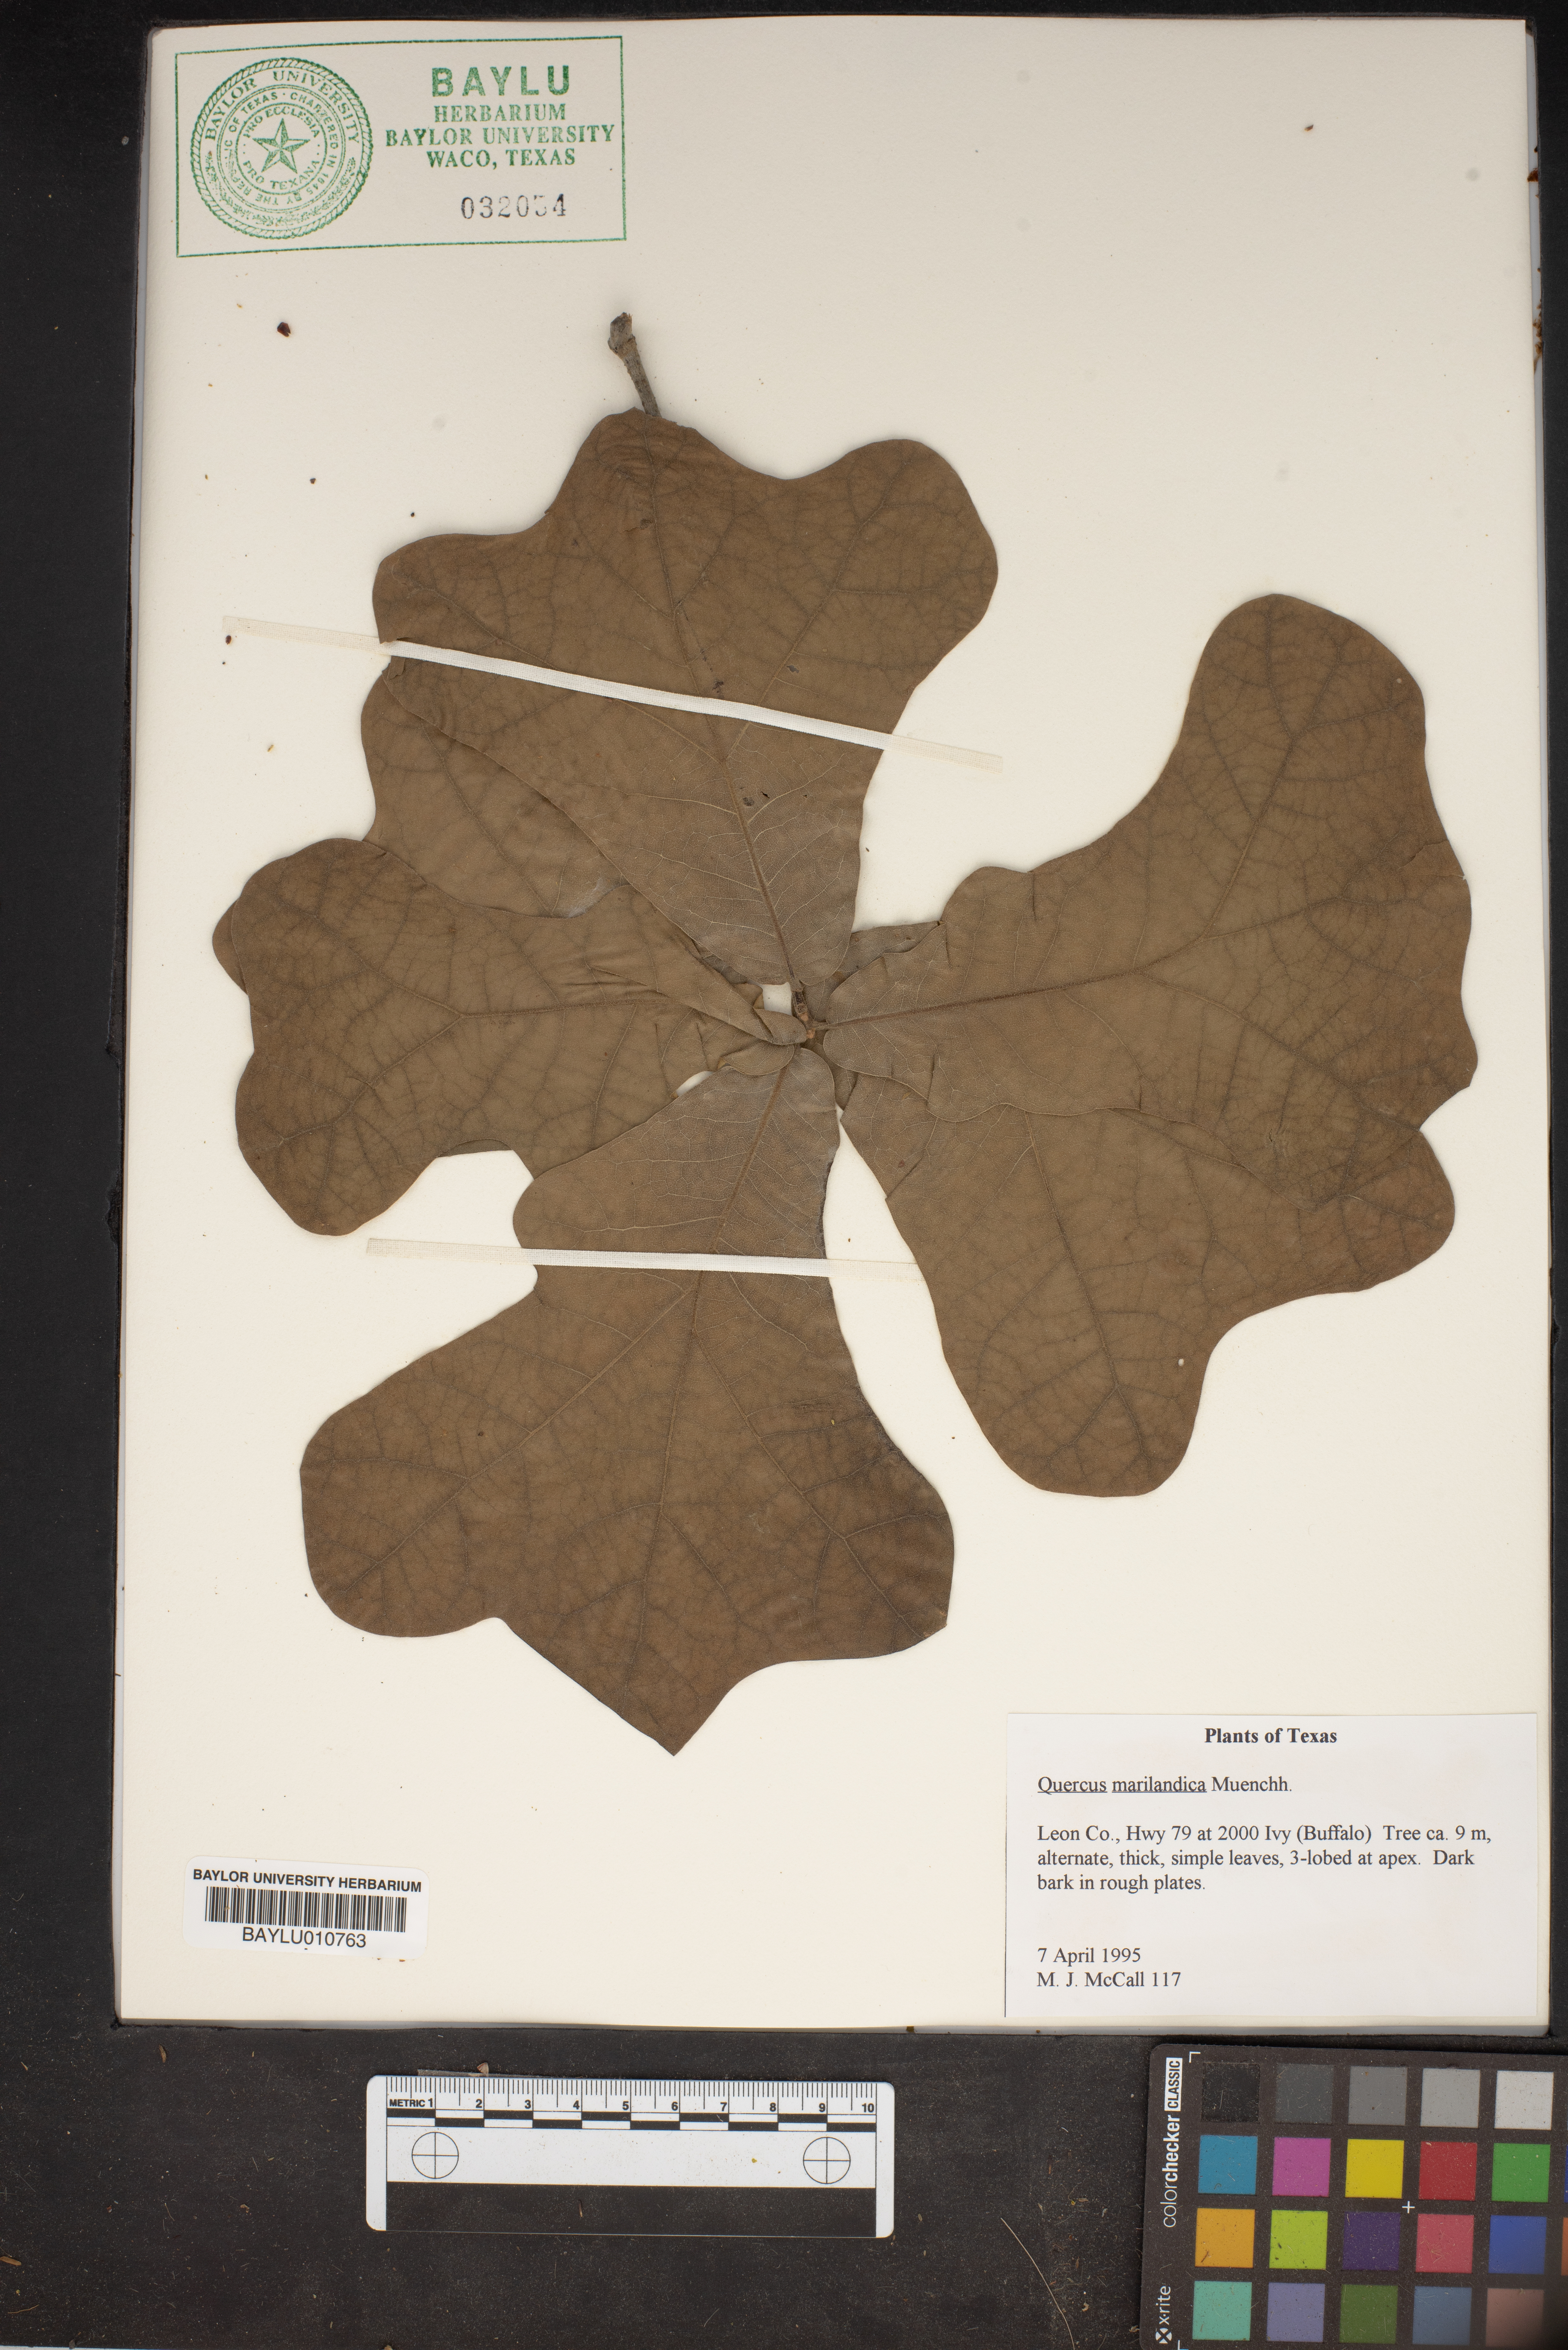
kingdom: Plantae
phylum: Tracheophyta
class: Magnoliopsida
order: Fagales
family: Fagaceae
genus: Quercus
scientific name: Quercus marilandica
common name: Blackjack oak
